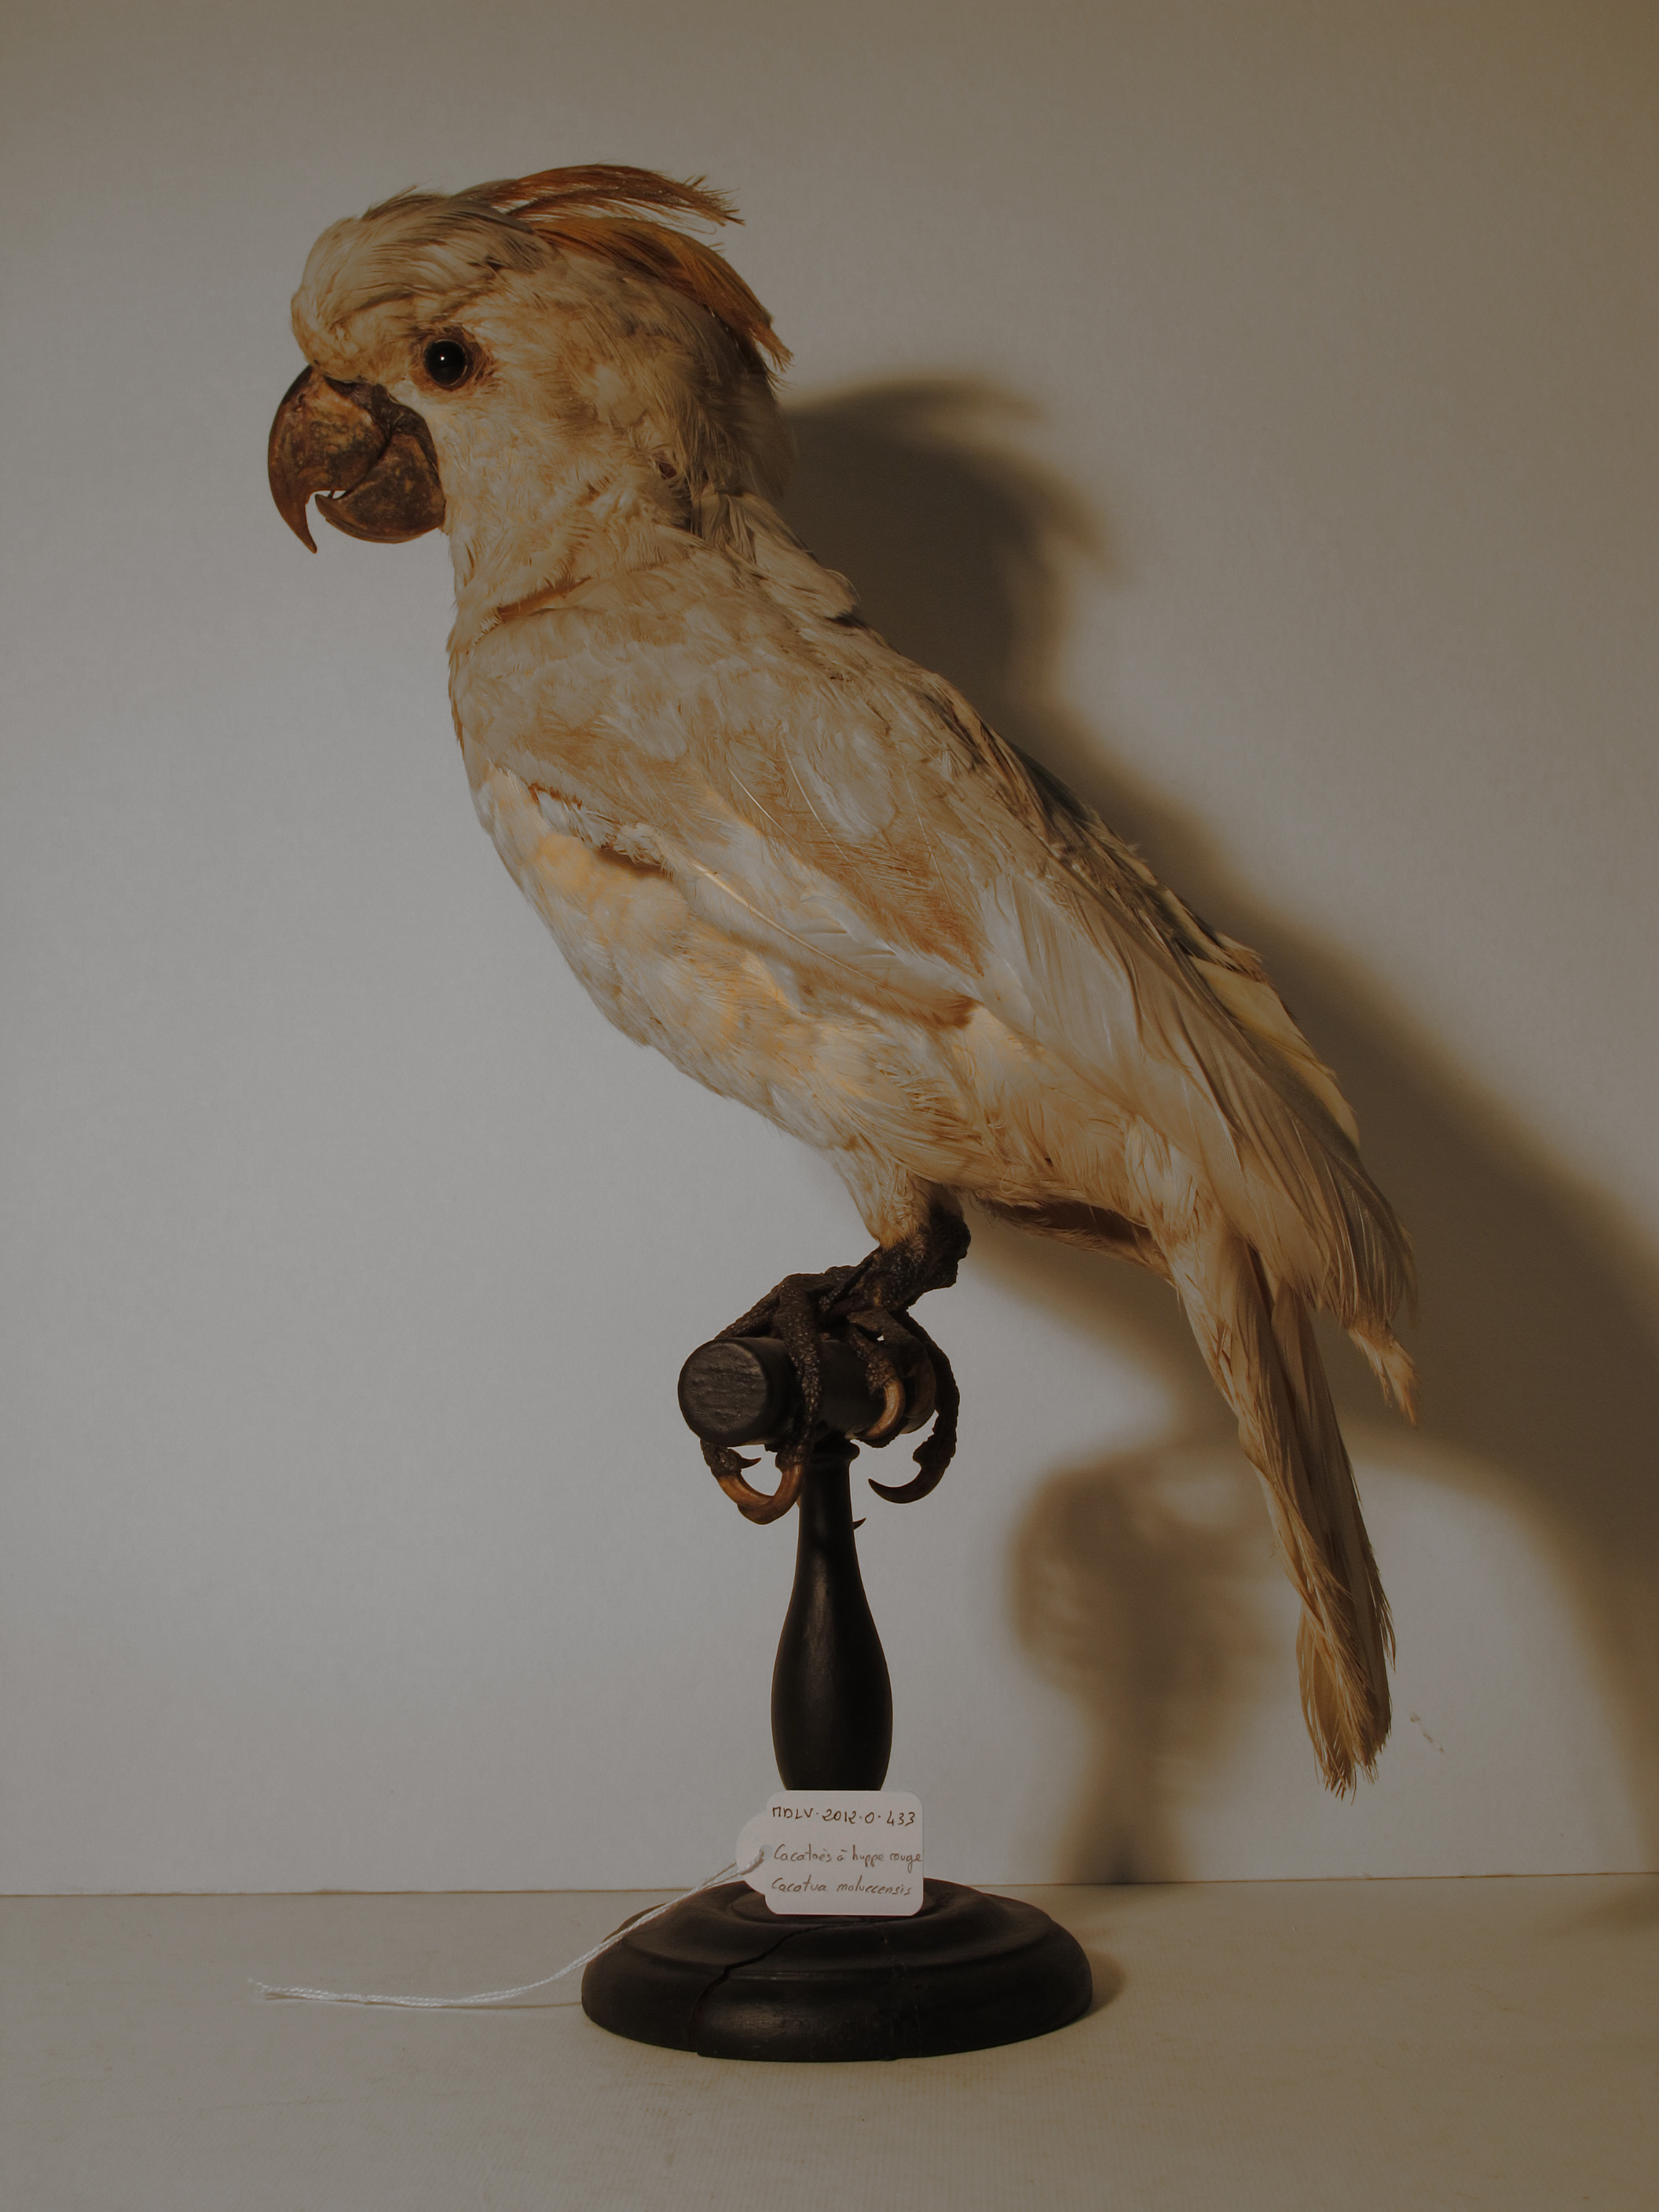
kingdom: Animalia
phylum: Chordata
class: Aves
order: Psittaciformes
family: Psittacidae
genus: Cacatua
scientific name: Cacatua moluccensis
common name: Salmon-crested Cockatoo
